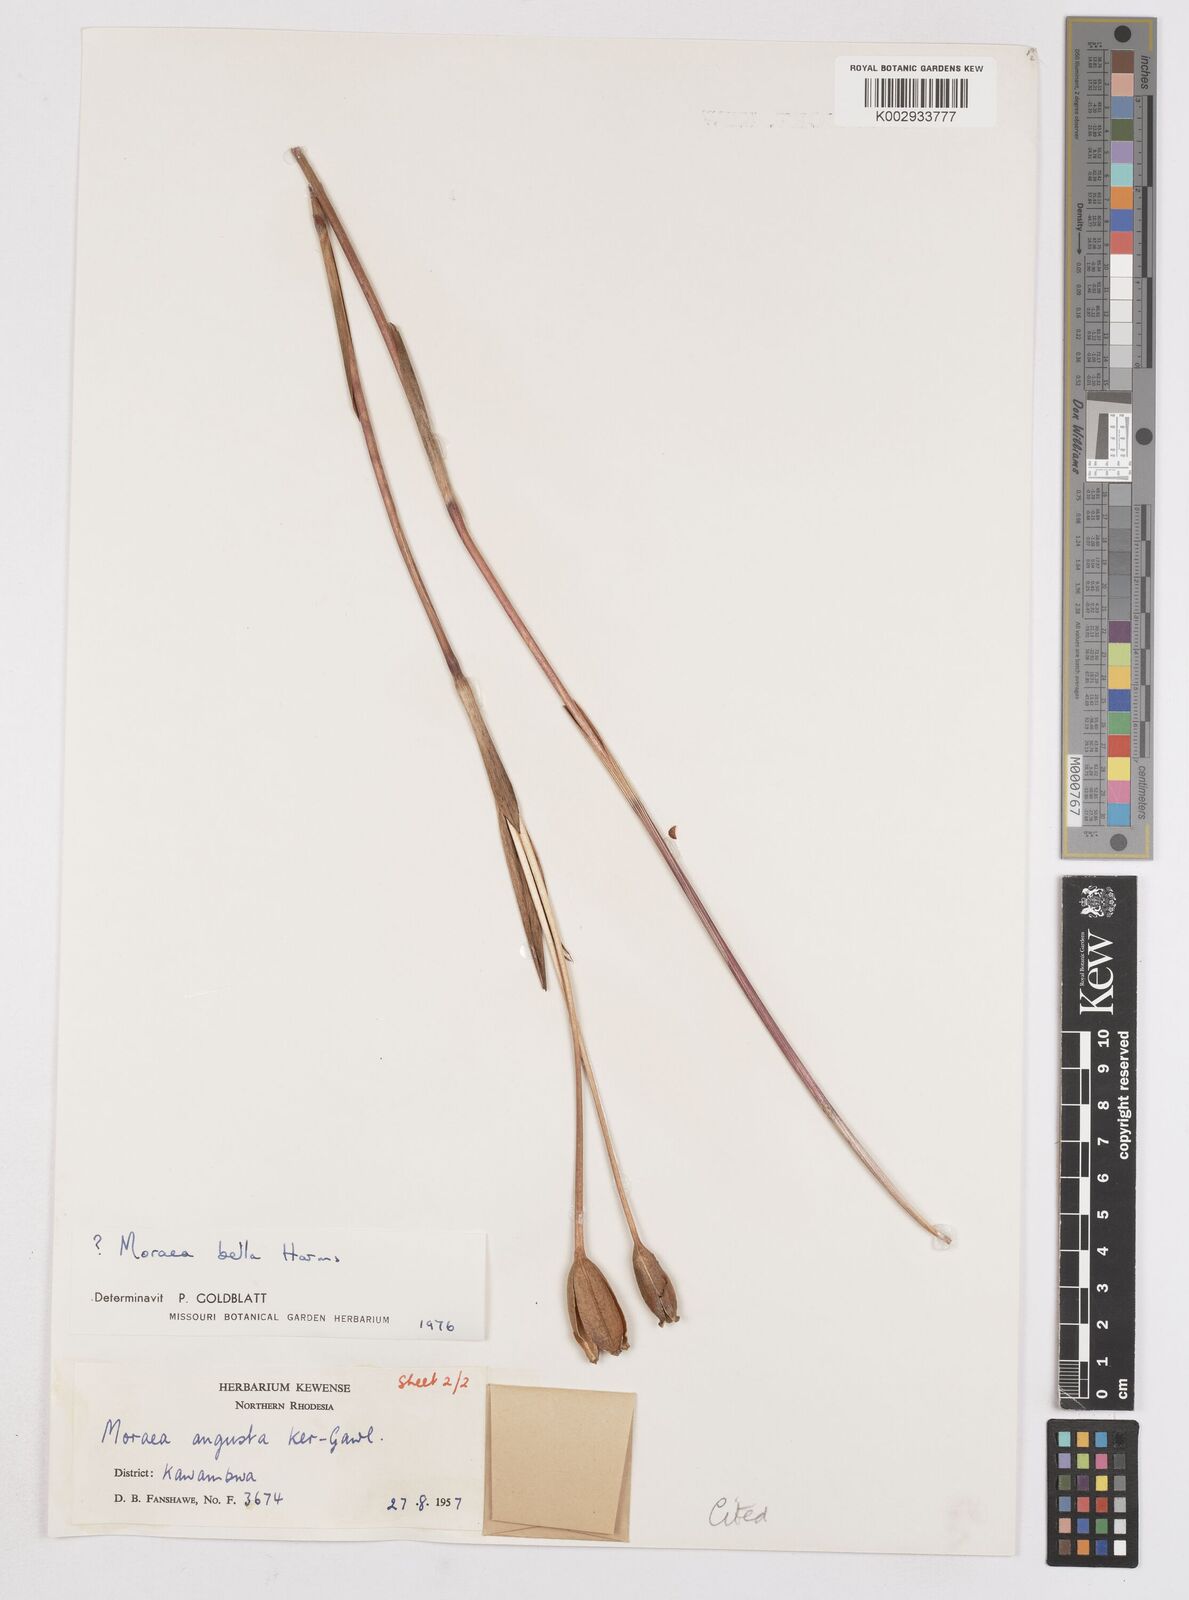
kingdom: Plantae
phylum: Tracheophyta
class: Liliopsida
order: Asparagales
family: Iridaceae
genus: Moraea
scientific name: Moraea bella
